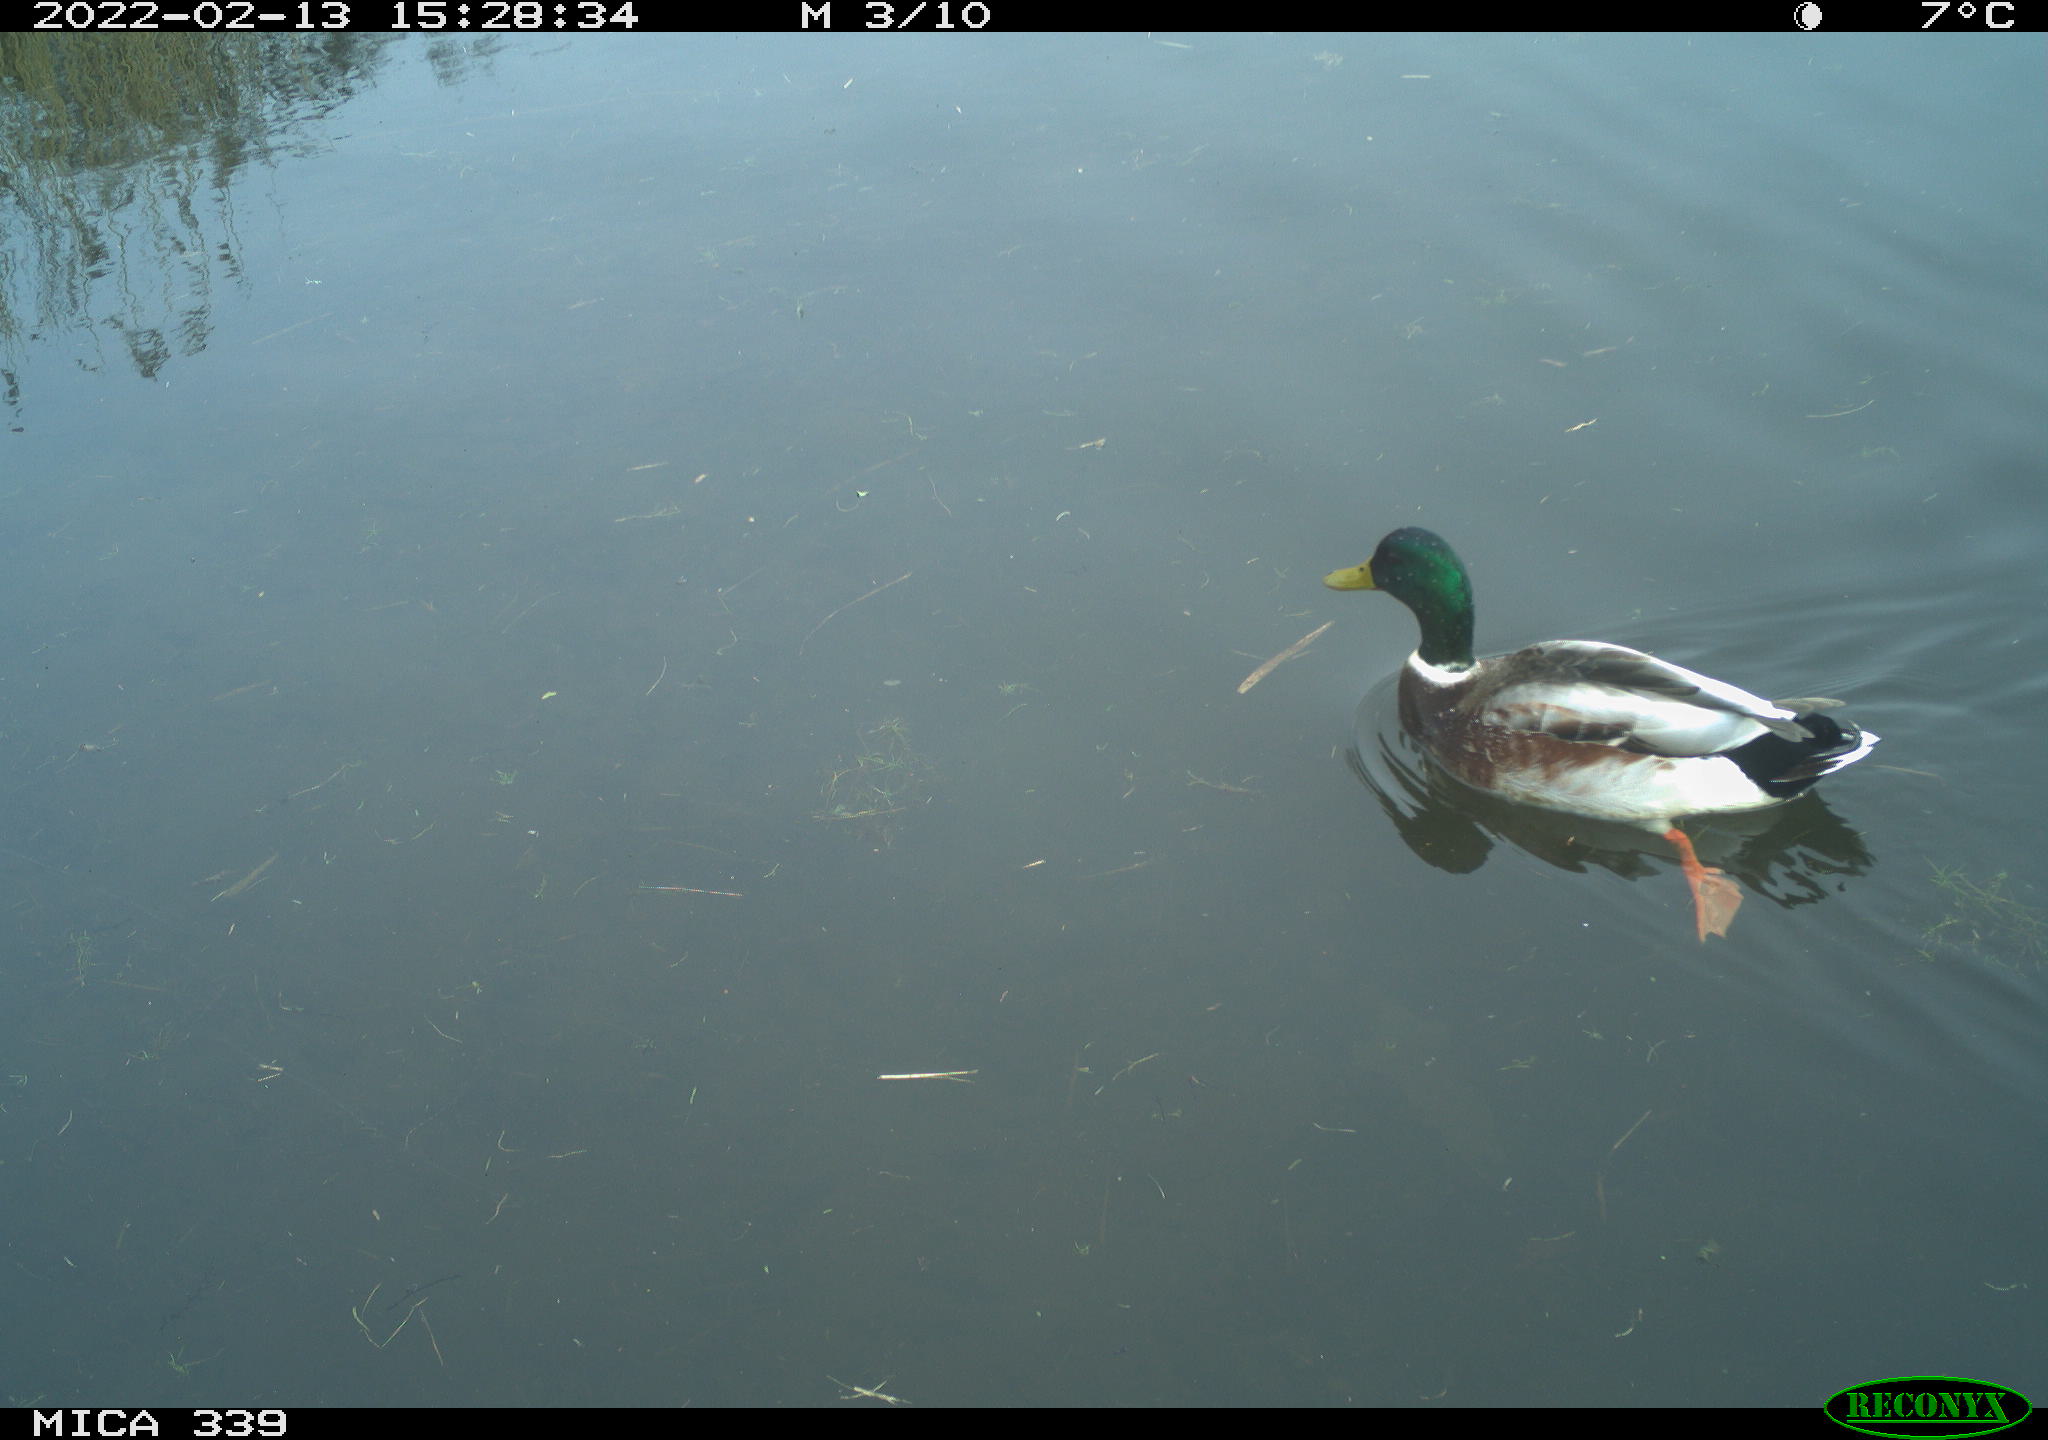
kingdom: Animalia
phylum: Chordata
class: Aves
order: Anseriformes
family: Anatidae
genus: Anas
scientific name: Anas platyrhynchos
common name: Mallard
